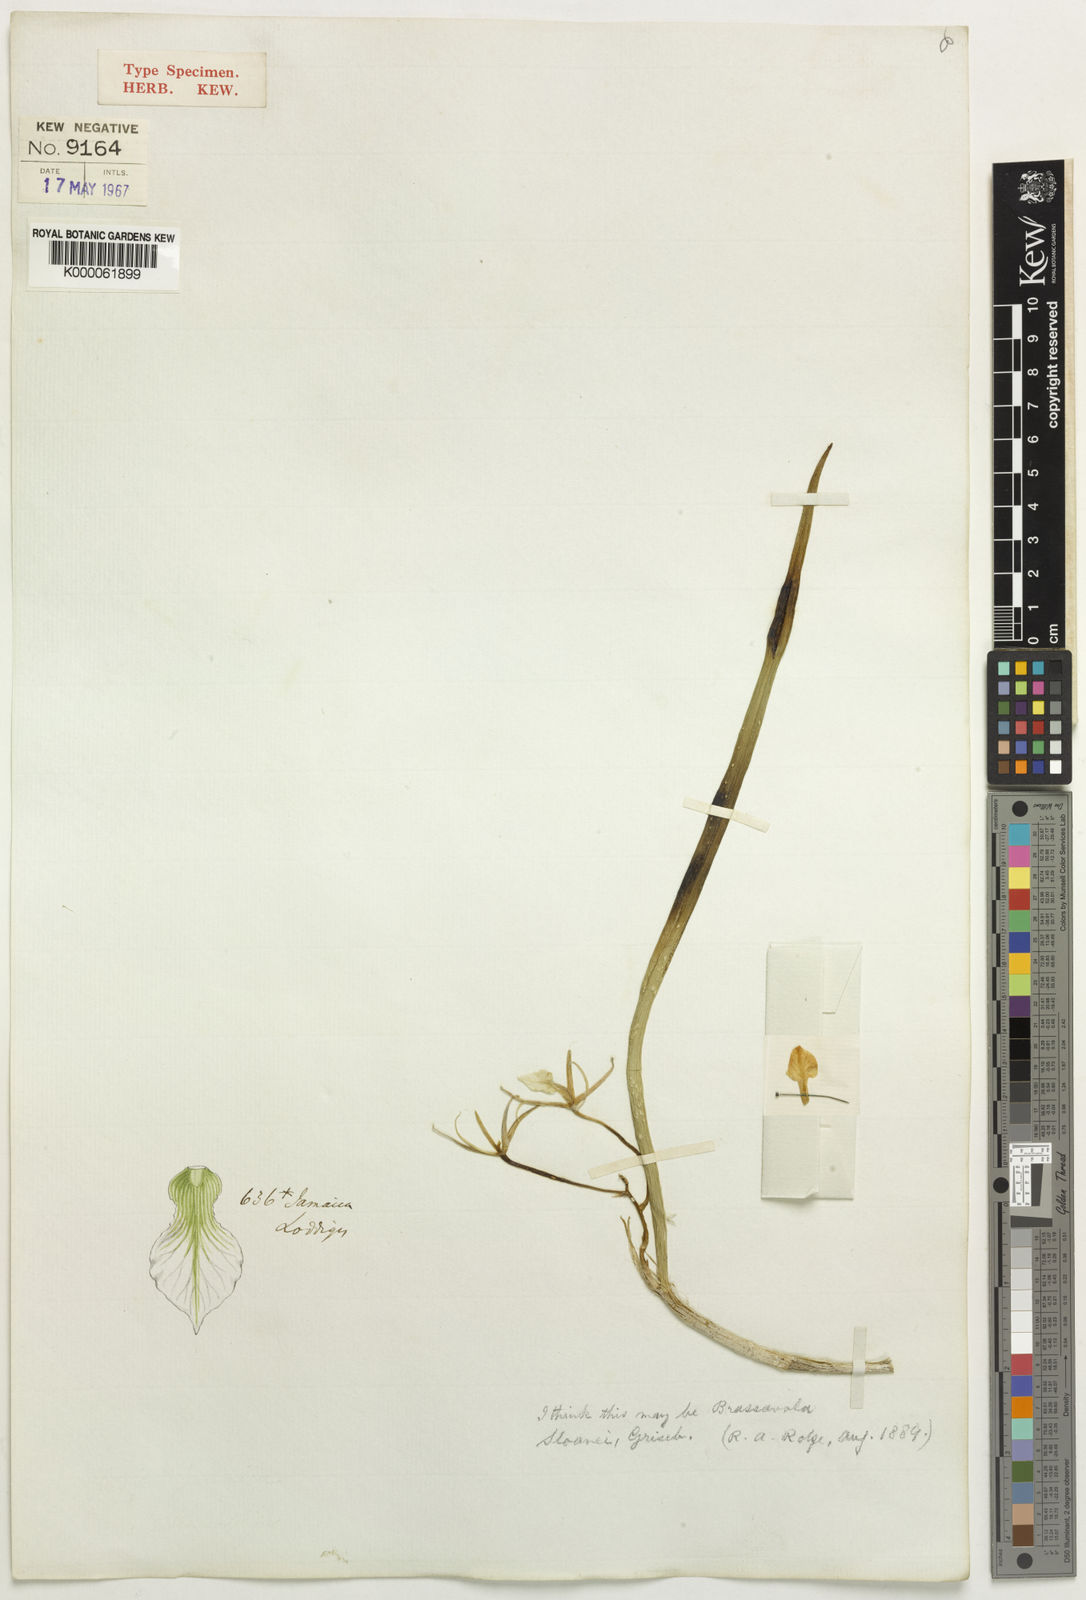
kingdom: Plantae
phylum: Tracheophyta
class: Liliopsida
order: Asparagales
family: Orchidaceae
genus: Brassavola
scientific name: Brassavola subulifolia
